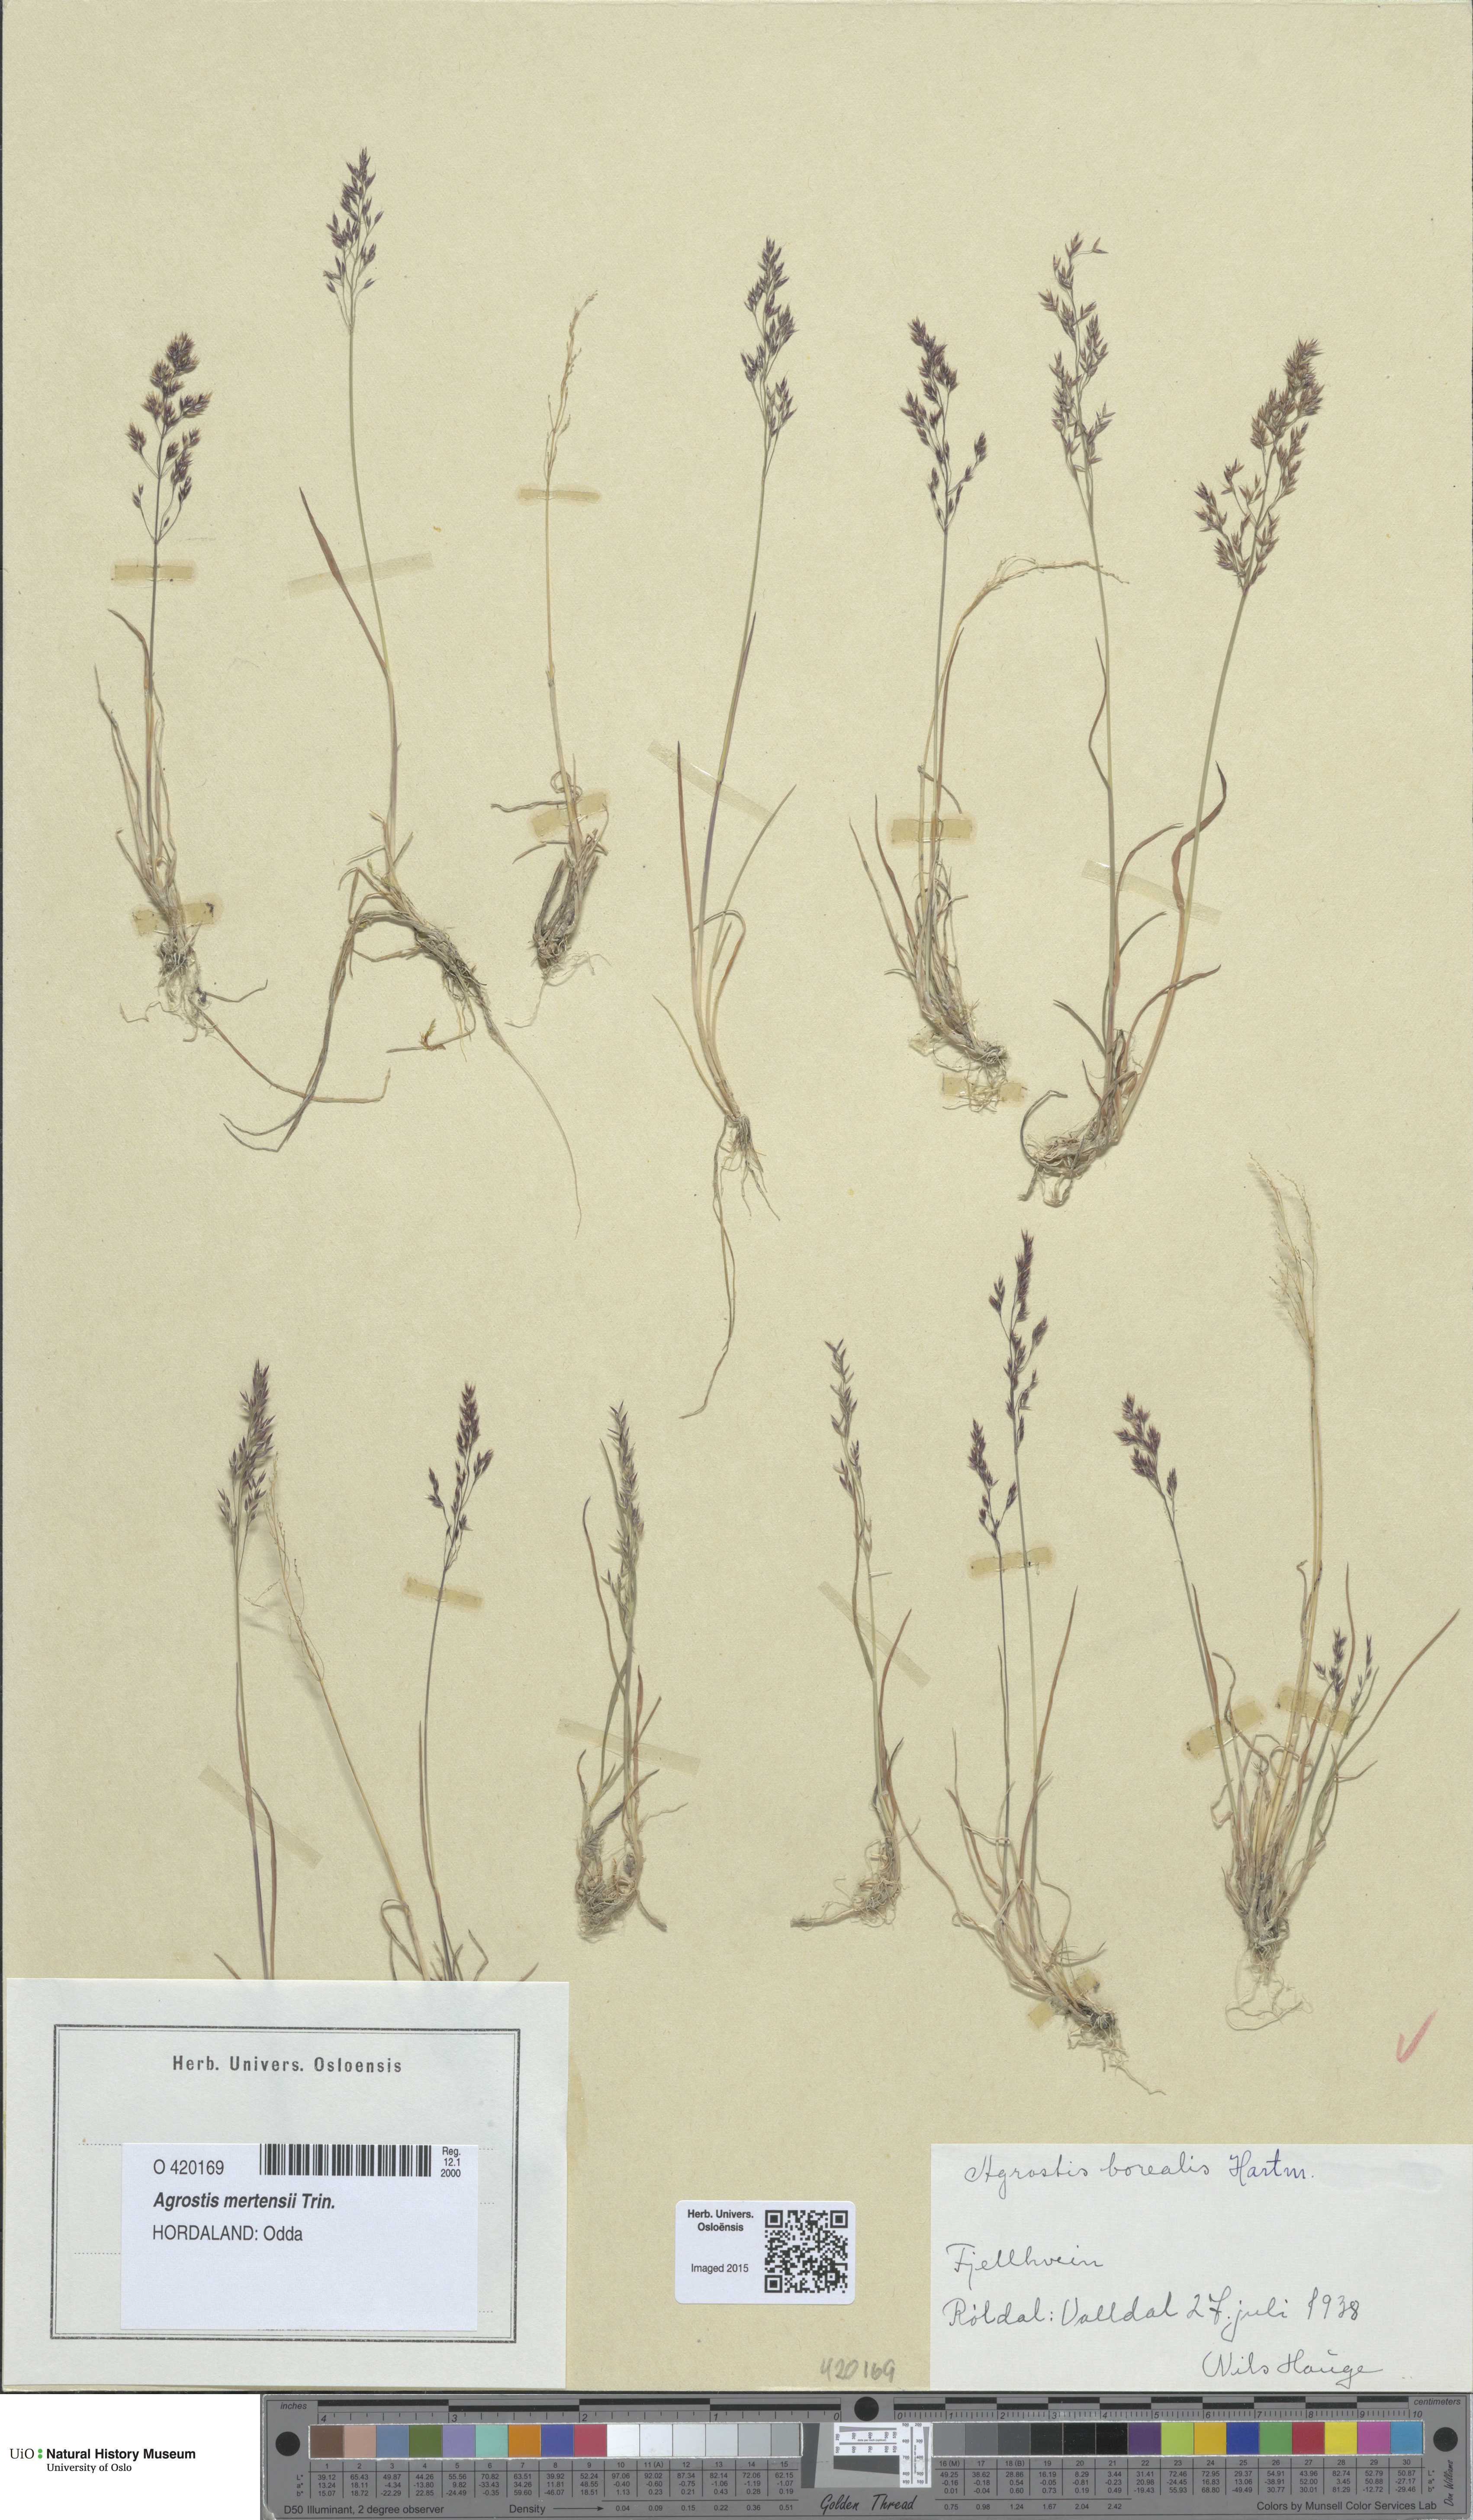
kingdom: Plantae
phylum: Tracheophyta
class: Liliopsida
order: Poales
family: Poaceae
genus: Agrostis
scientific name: Agrostis mertensii
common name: Northern bent
